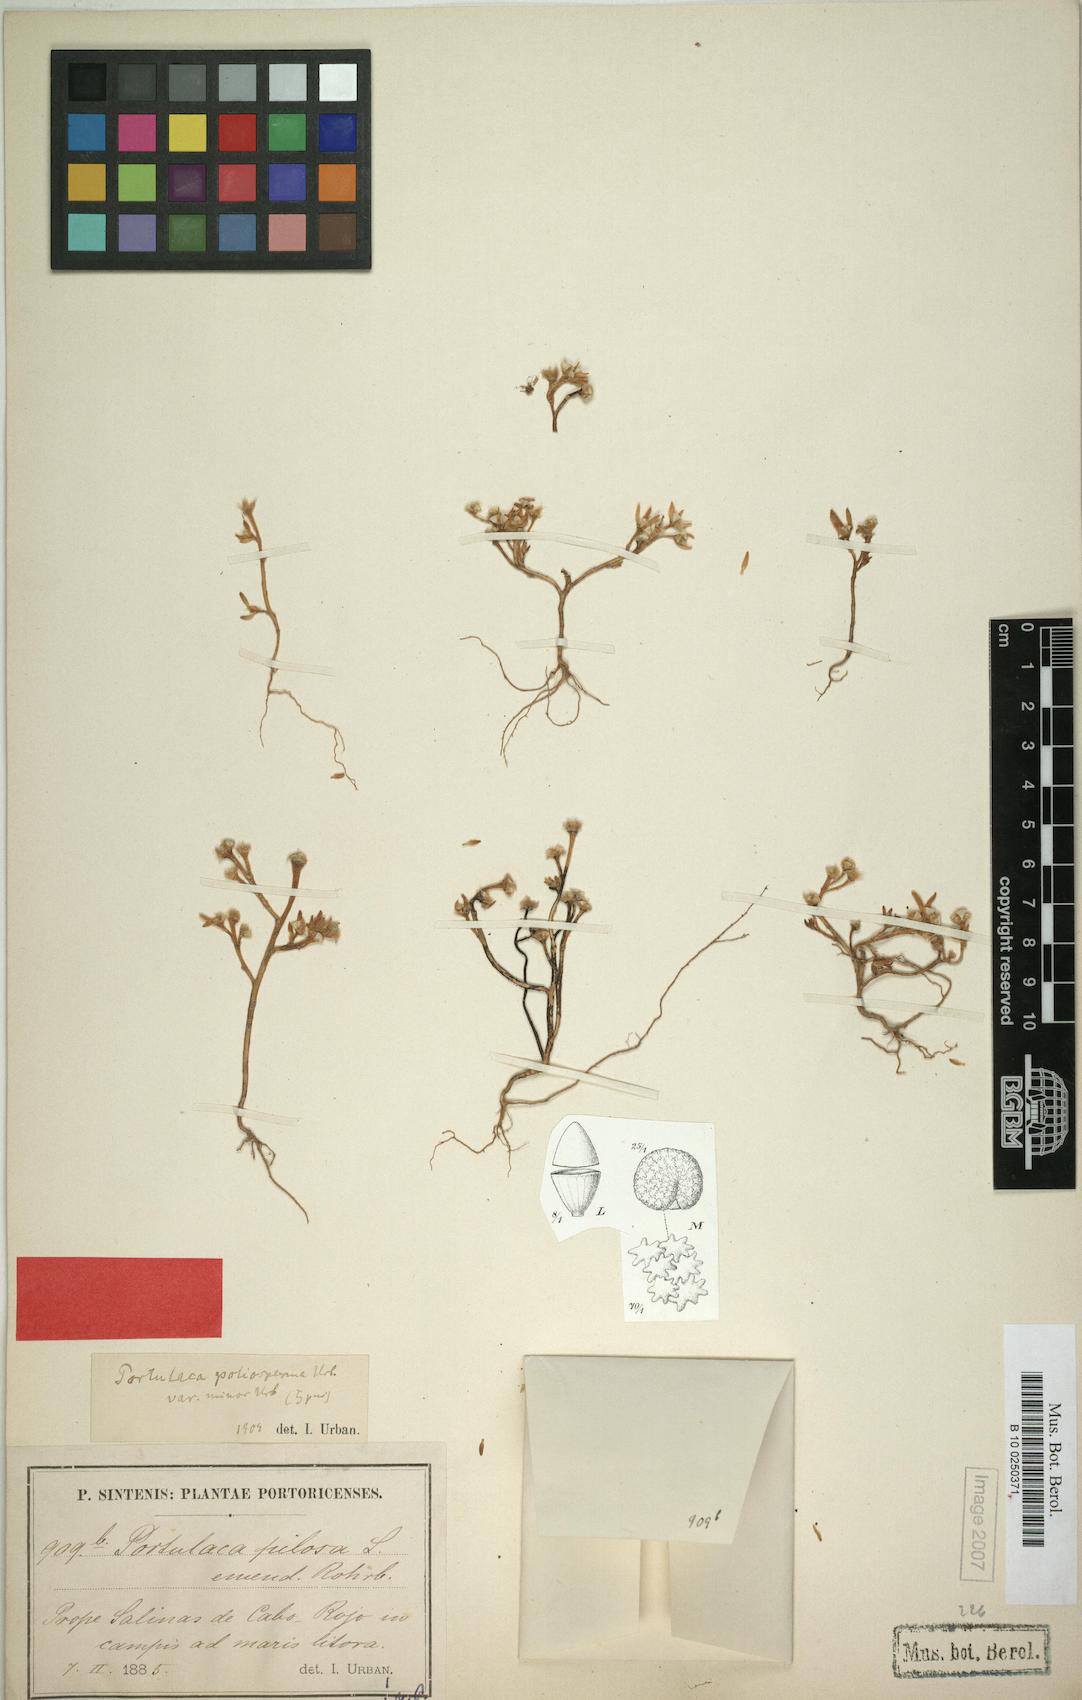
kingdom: Plantae
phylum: Tracheophyta
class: Magnoliopsida
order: Caryophyllales
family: Portulacaceae
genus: Portulaca
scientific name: Portulaca teretifolia
